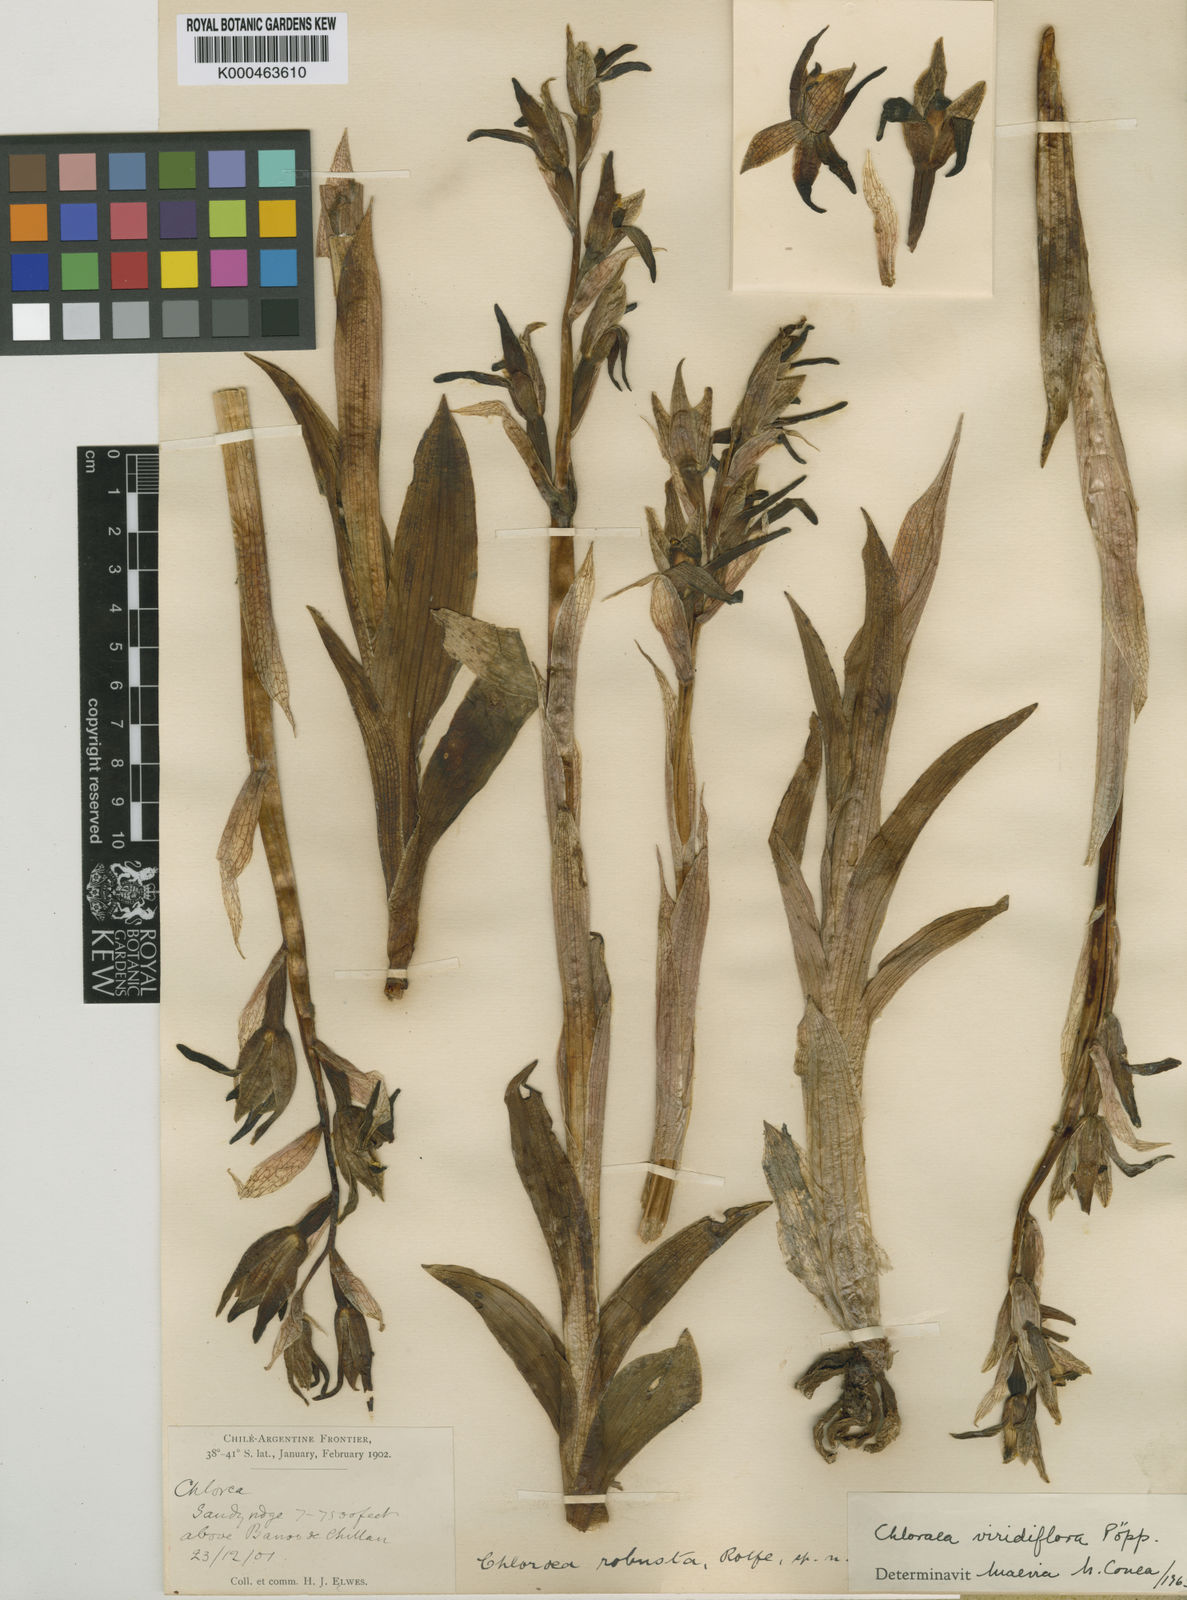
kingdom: Plantae
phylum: Tracheophyta
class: Liliopsida
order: Asparagales
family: Orchidaceae
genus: Chloraea
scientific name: Chloraea viridiflora
